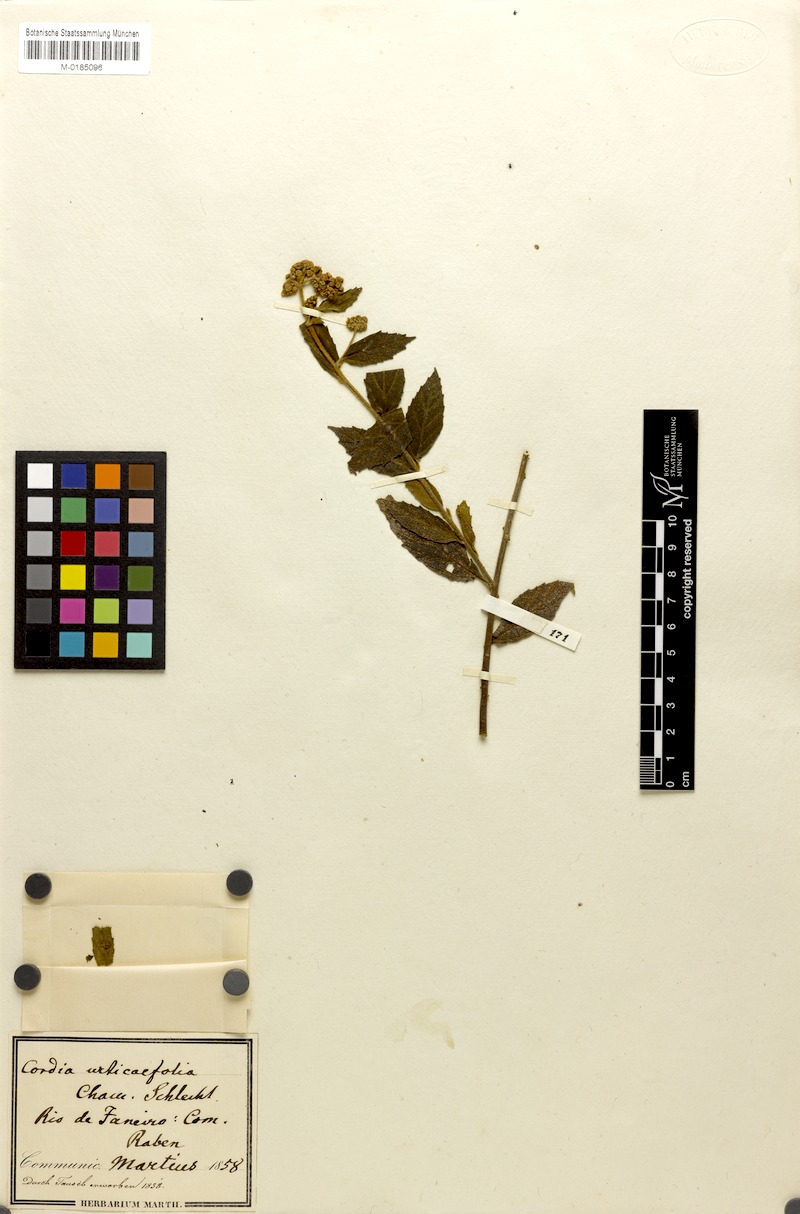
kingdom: Plantae
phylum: Tracheophyta
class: Magnoliopsida
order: Boraginales
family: Cordiaceae
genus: Varronia
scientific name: Varronia polycephala
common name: Black-sage
